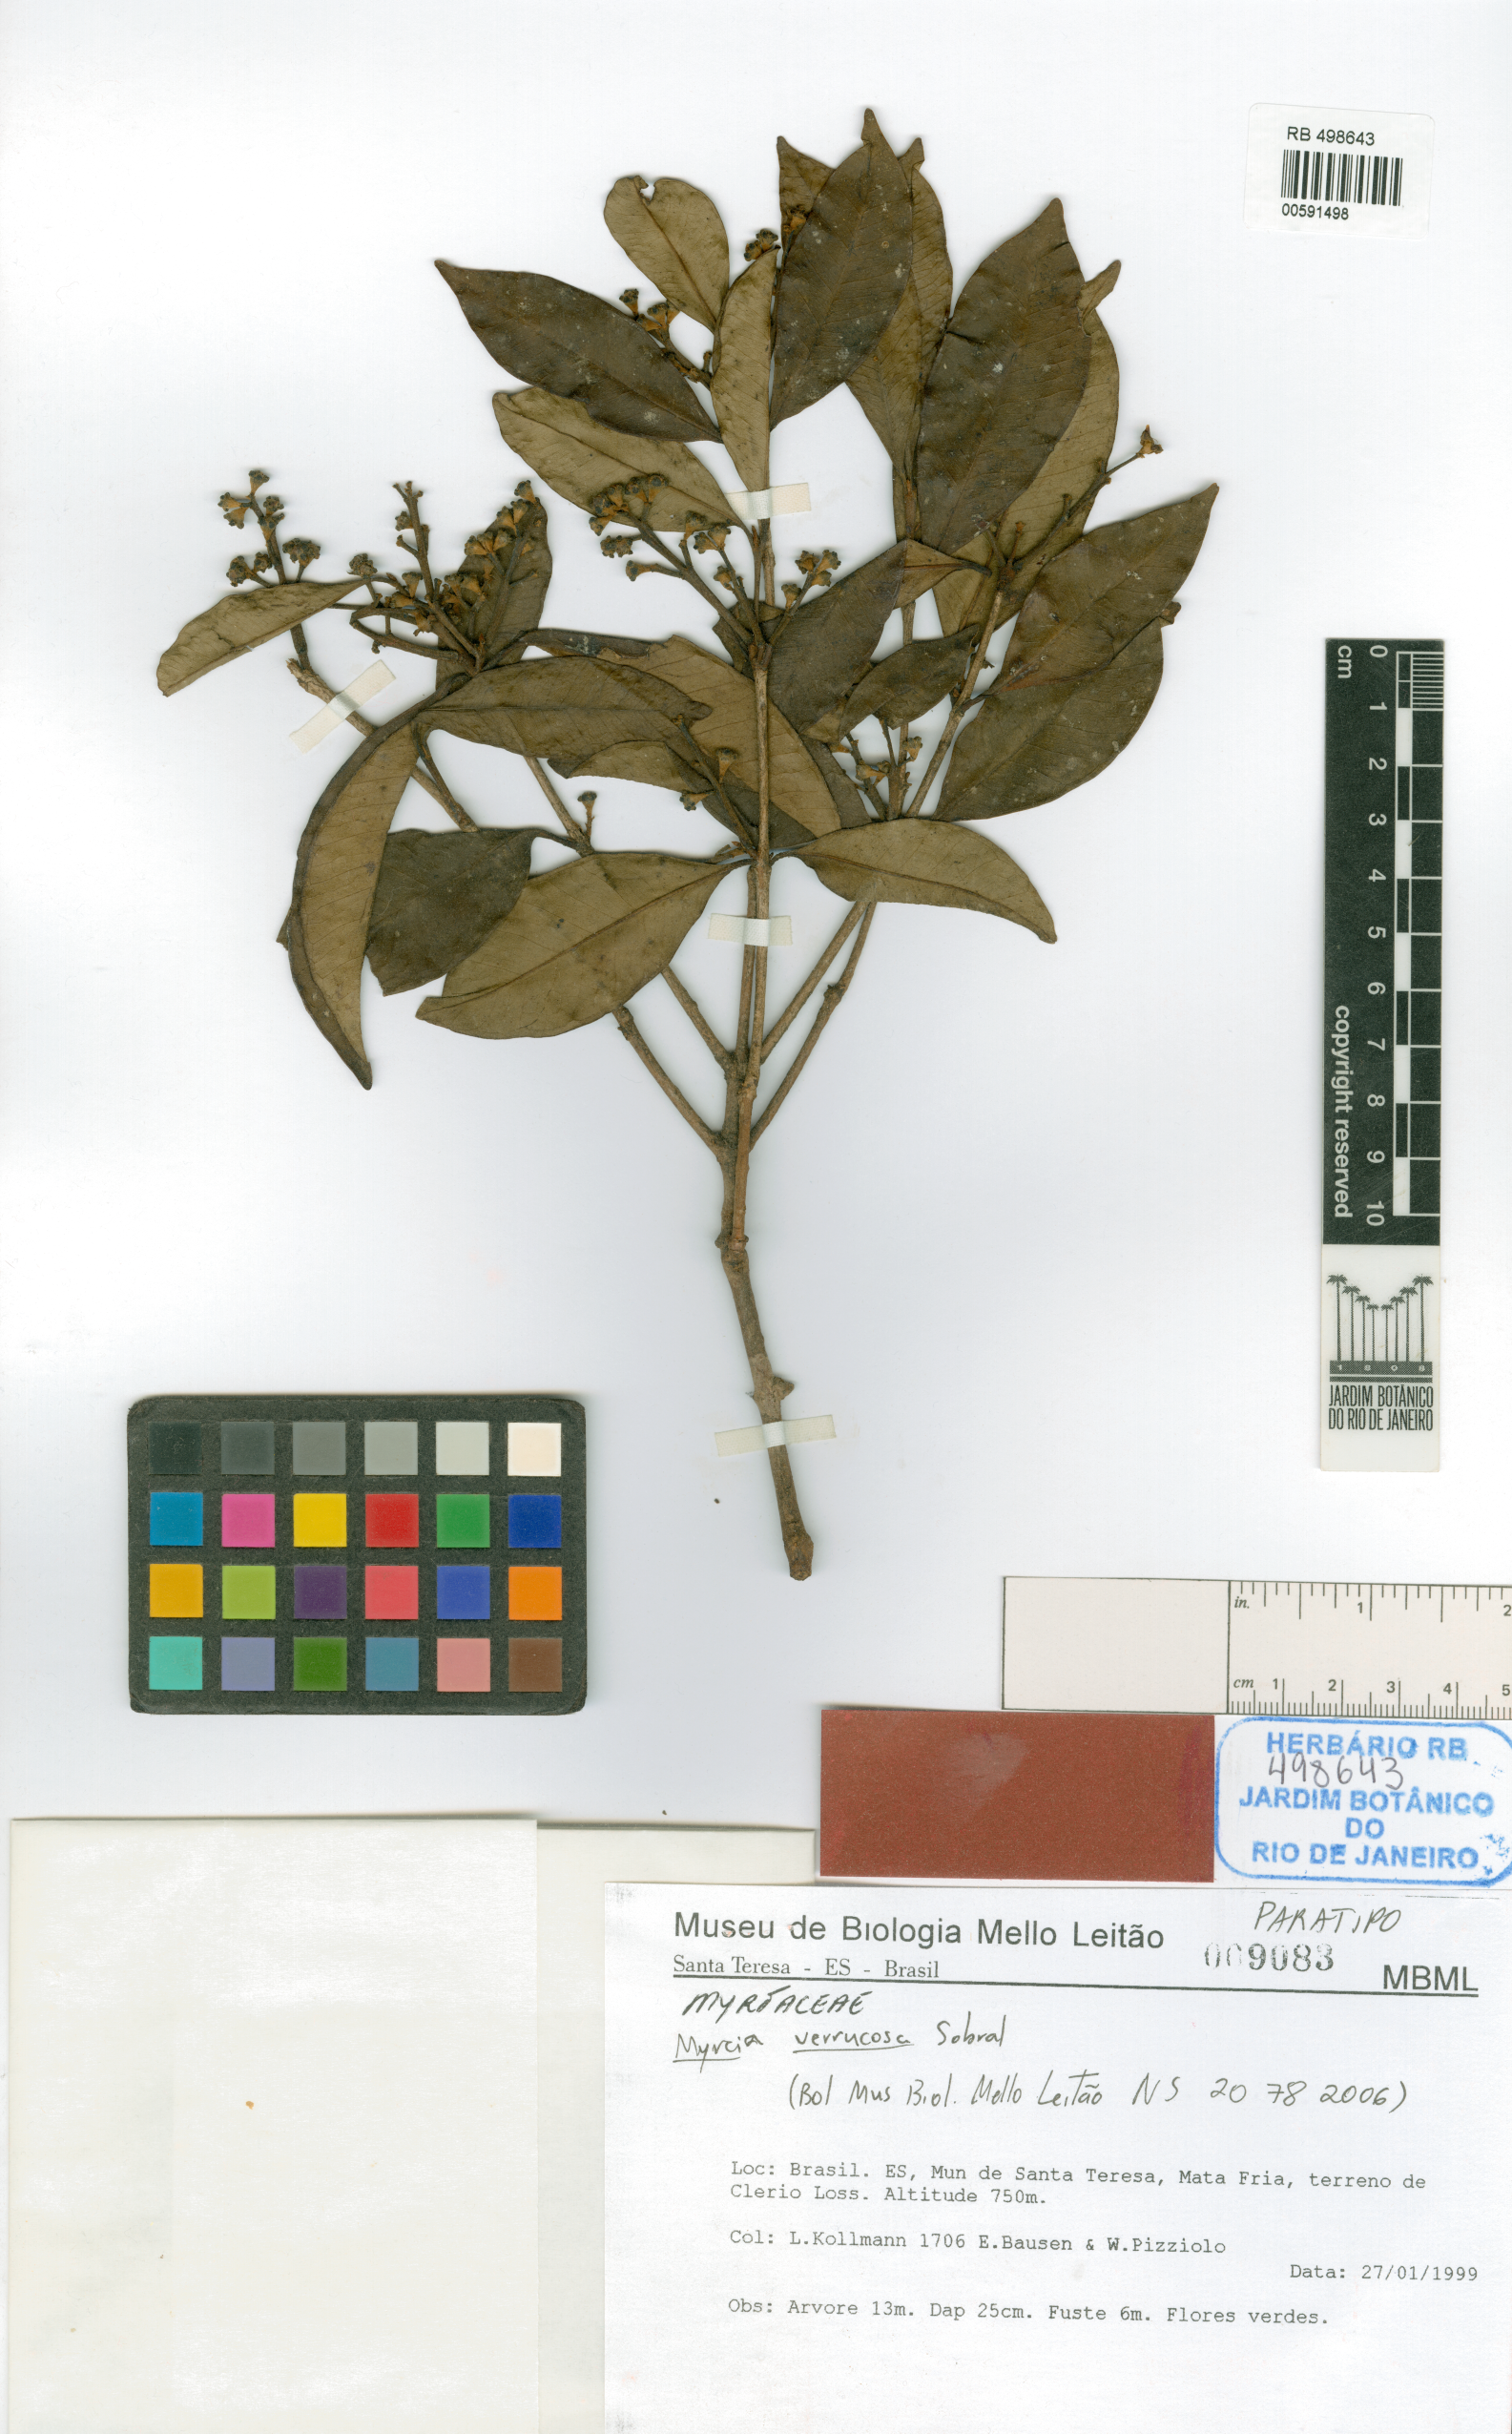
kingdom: Plantae
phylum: Tracheophyta
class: Magnoliopsida
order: Myrtales
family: Myrtaceae
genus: Myrcia
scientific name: Myrcia verrucosa
